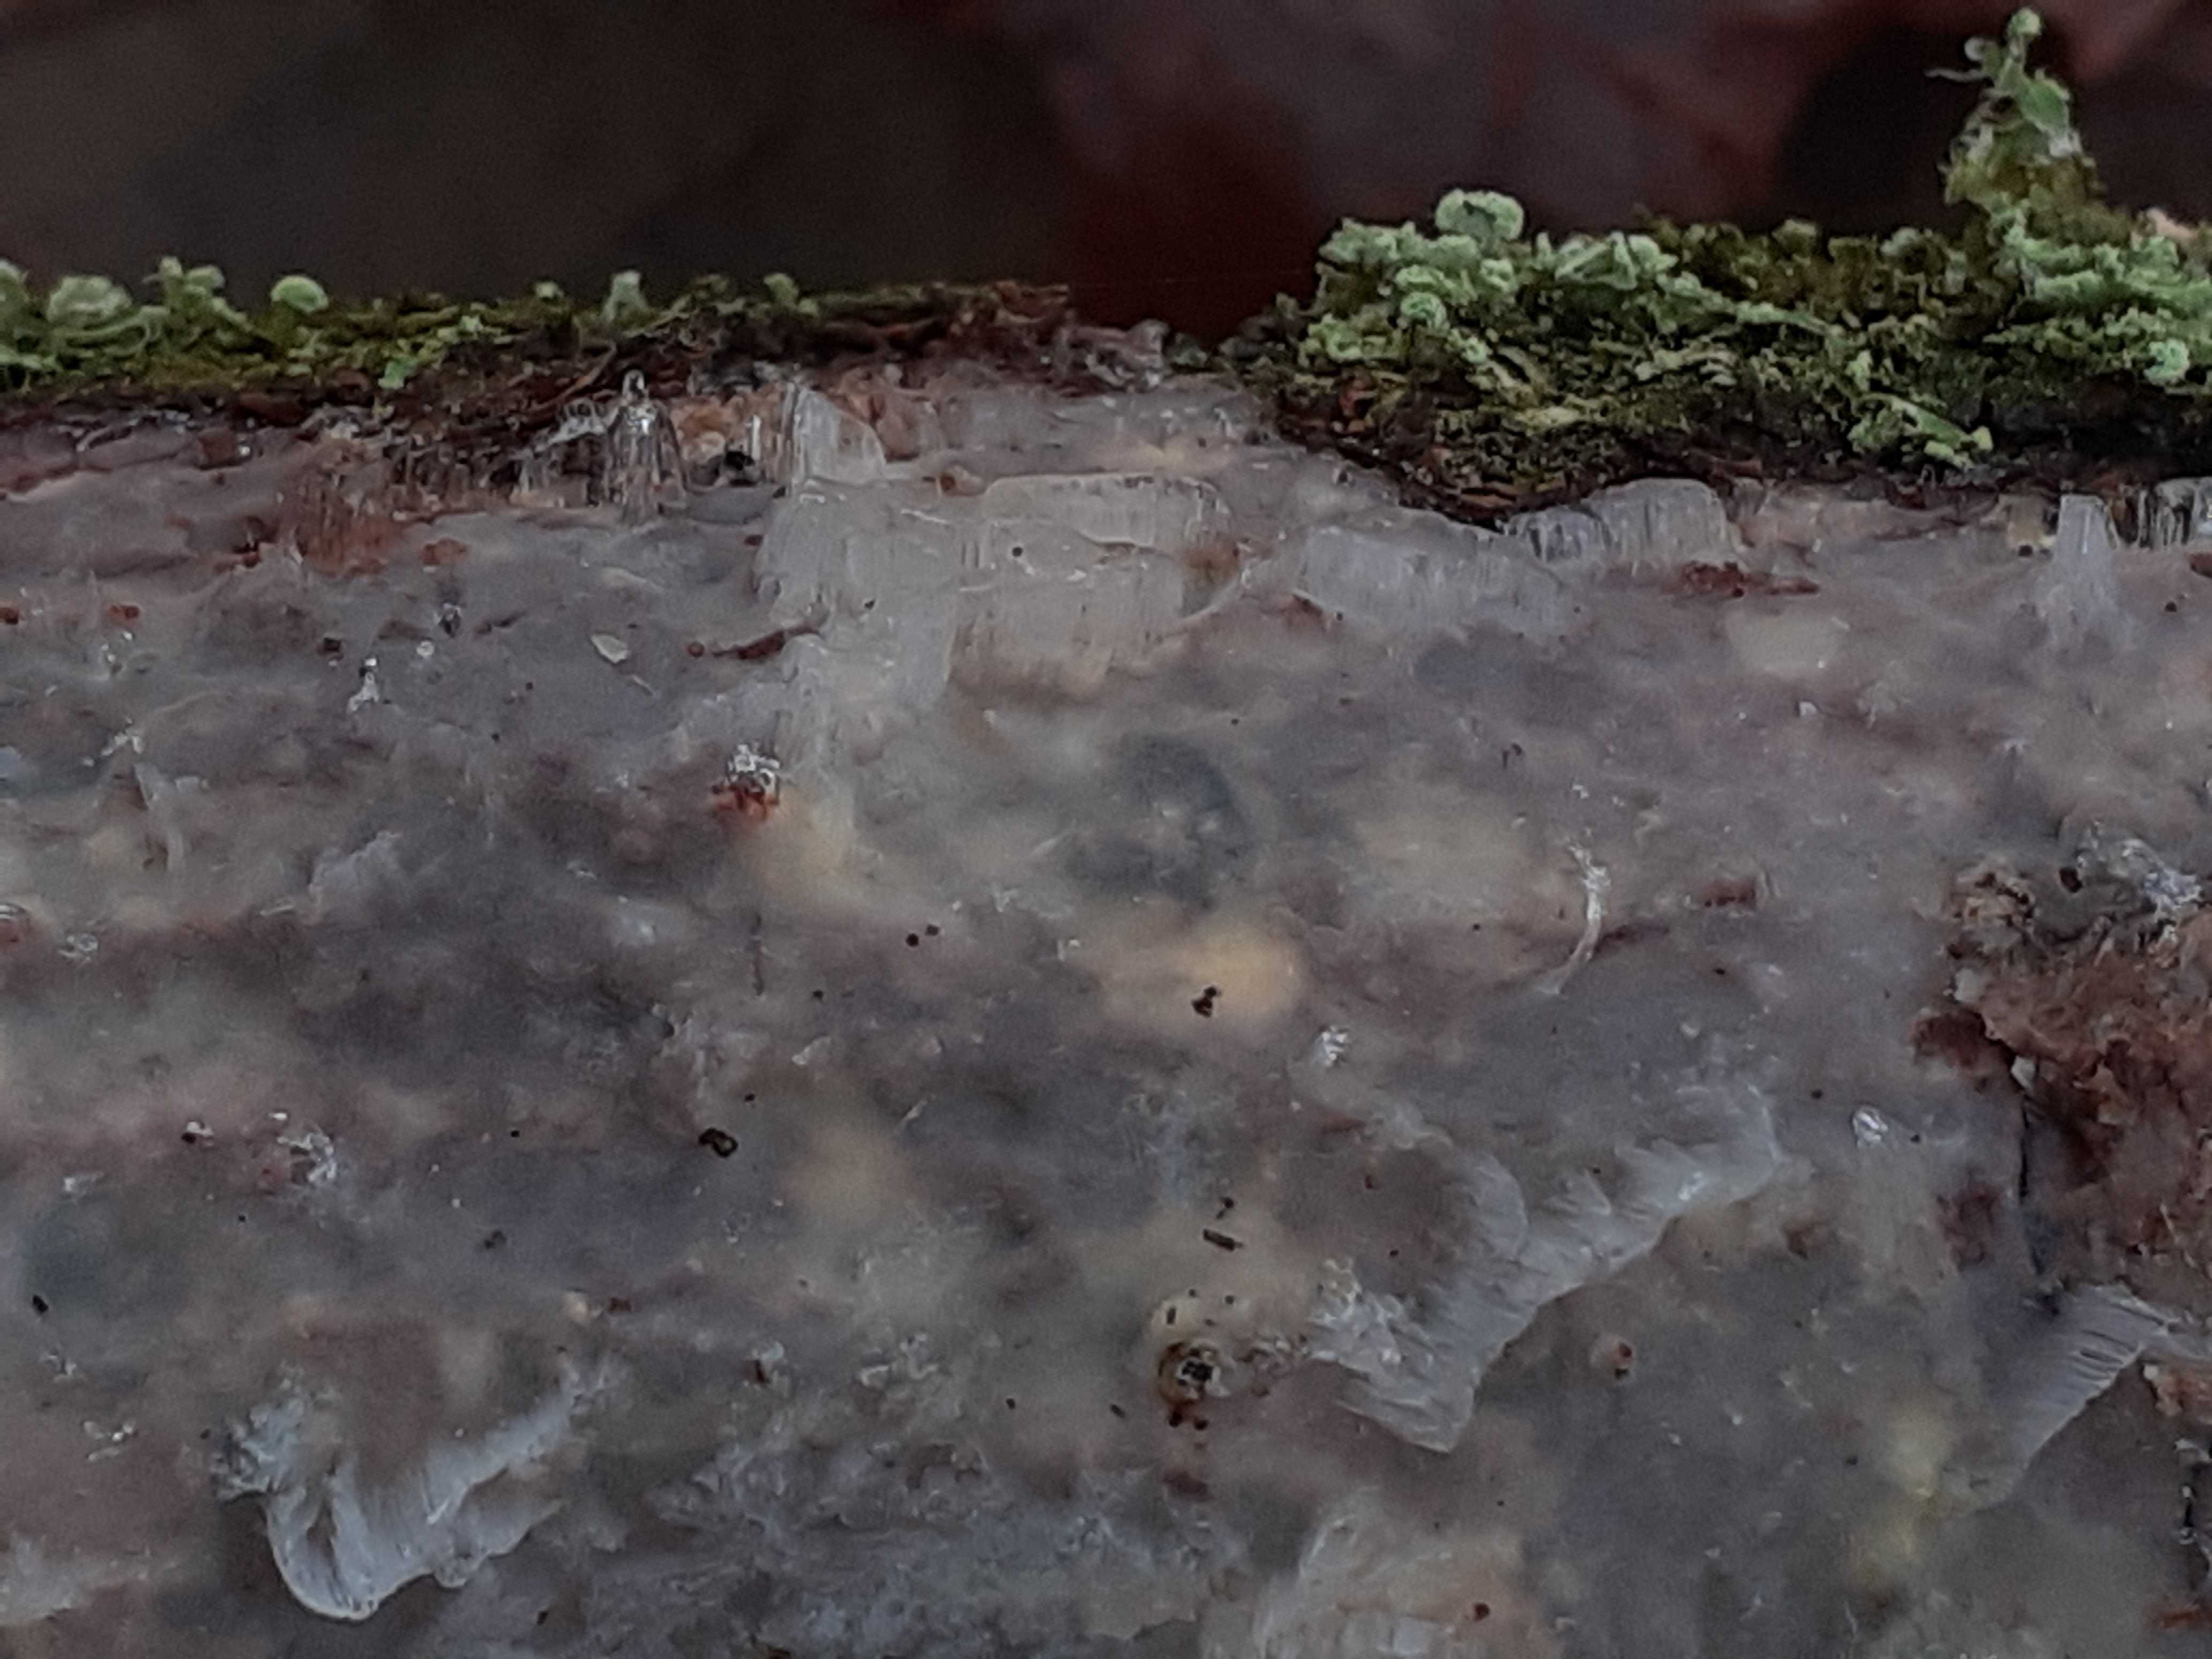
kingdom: Fungi
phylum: Basidiomycota
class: Agaricomycetes
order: Corticiales
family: Vuilleminiaceae
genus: Vuilleminia
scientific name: Vuilleminia comedens
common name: almindelig barksprænger
